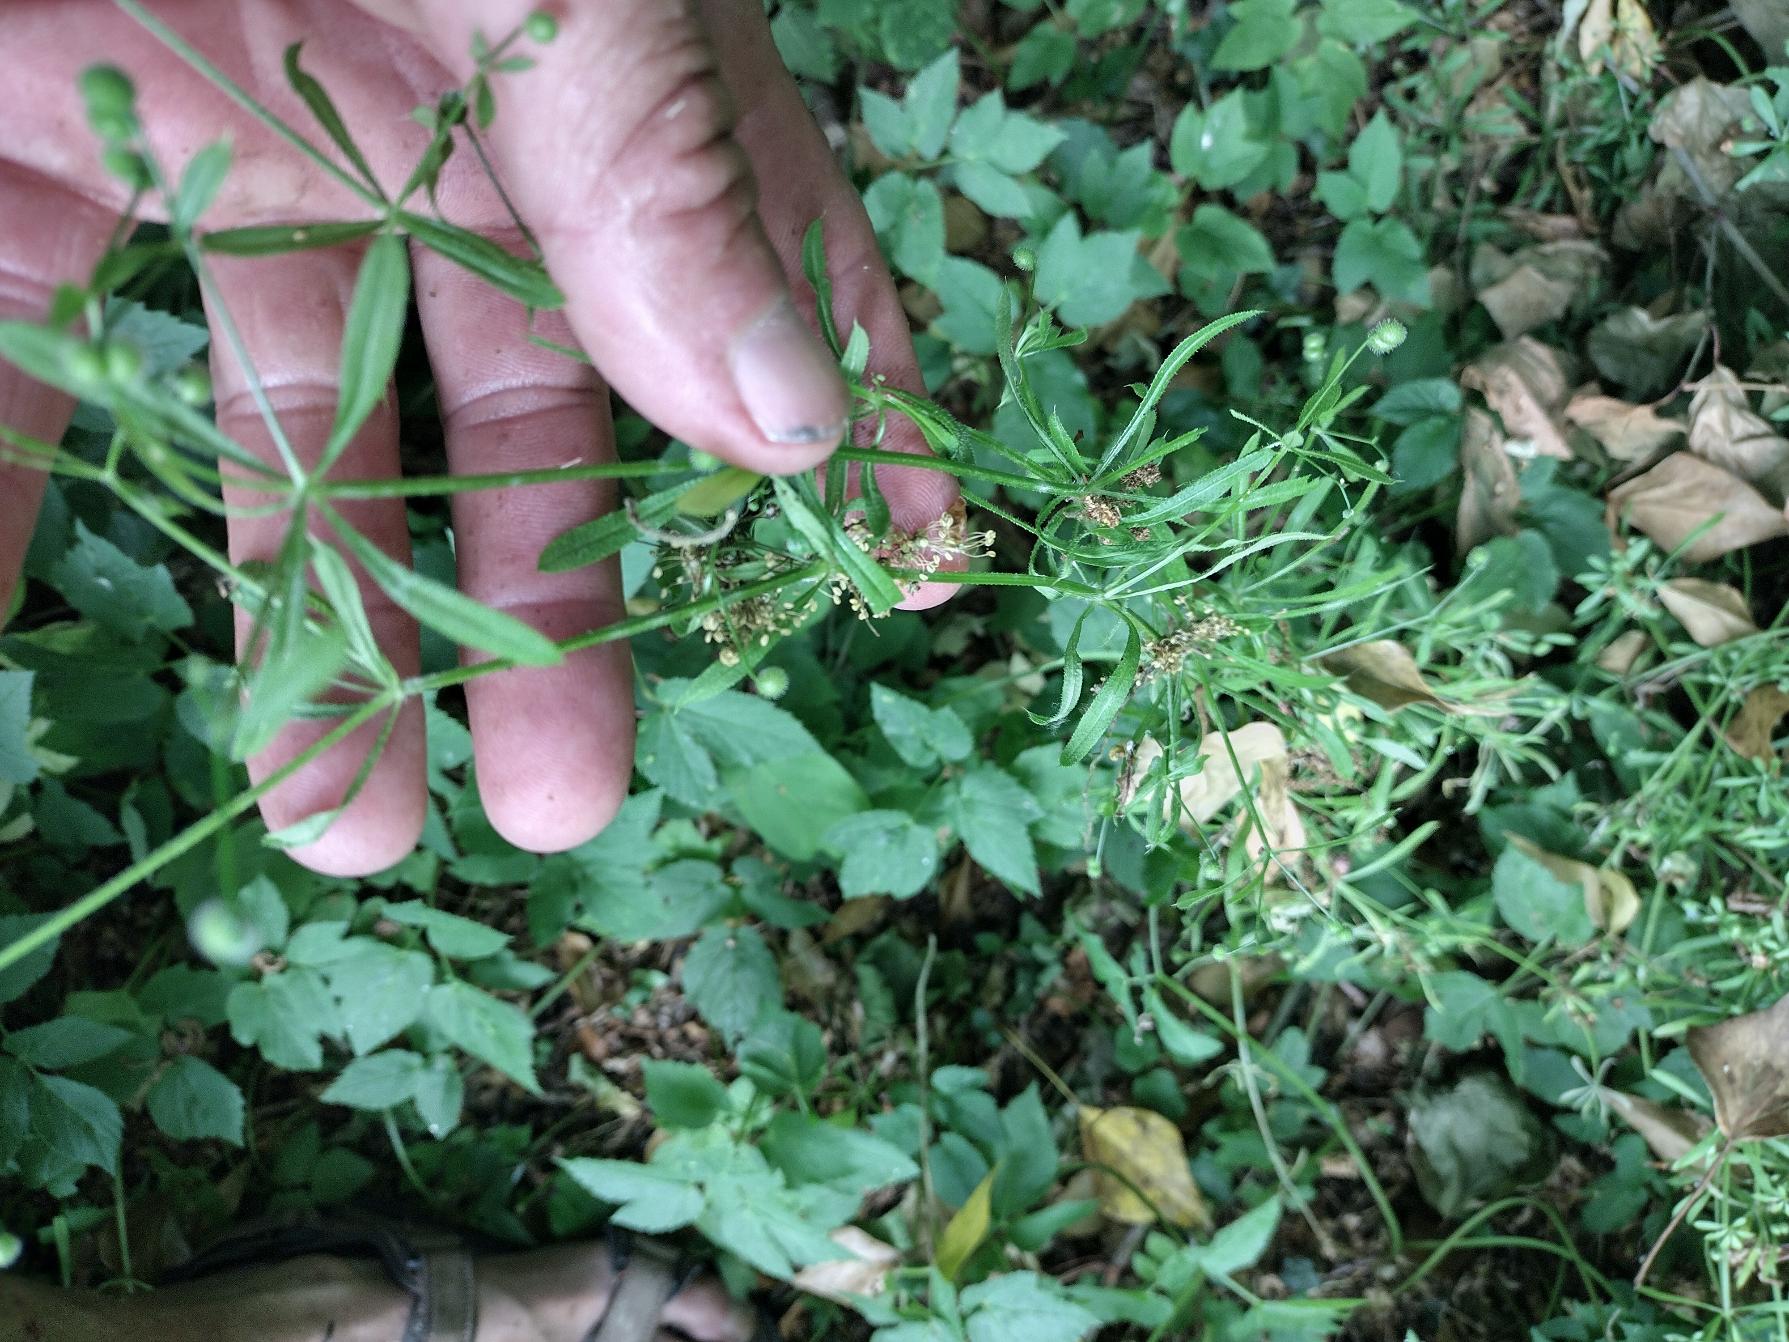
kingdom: Plantae
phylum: Tracheophyta
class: Magnoliopsida
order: Gentianales
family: Rubiaceae
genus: Galium
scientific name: Galium aparine
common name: Burre-snerre
